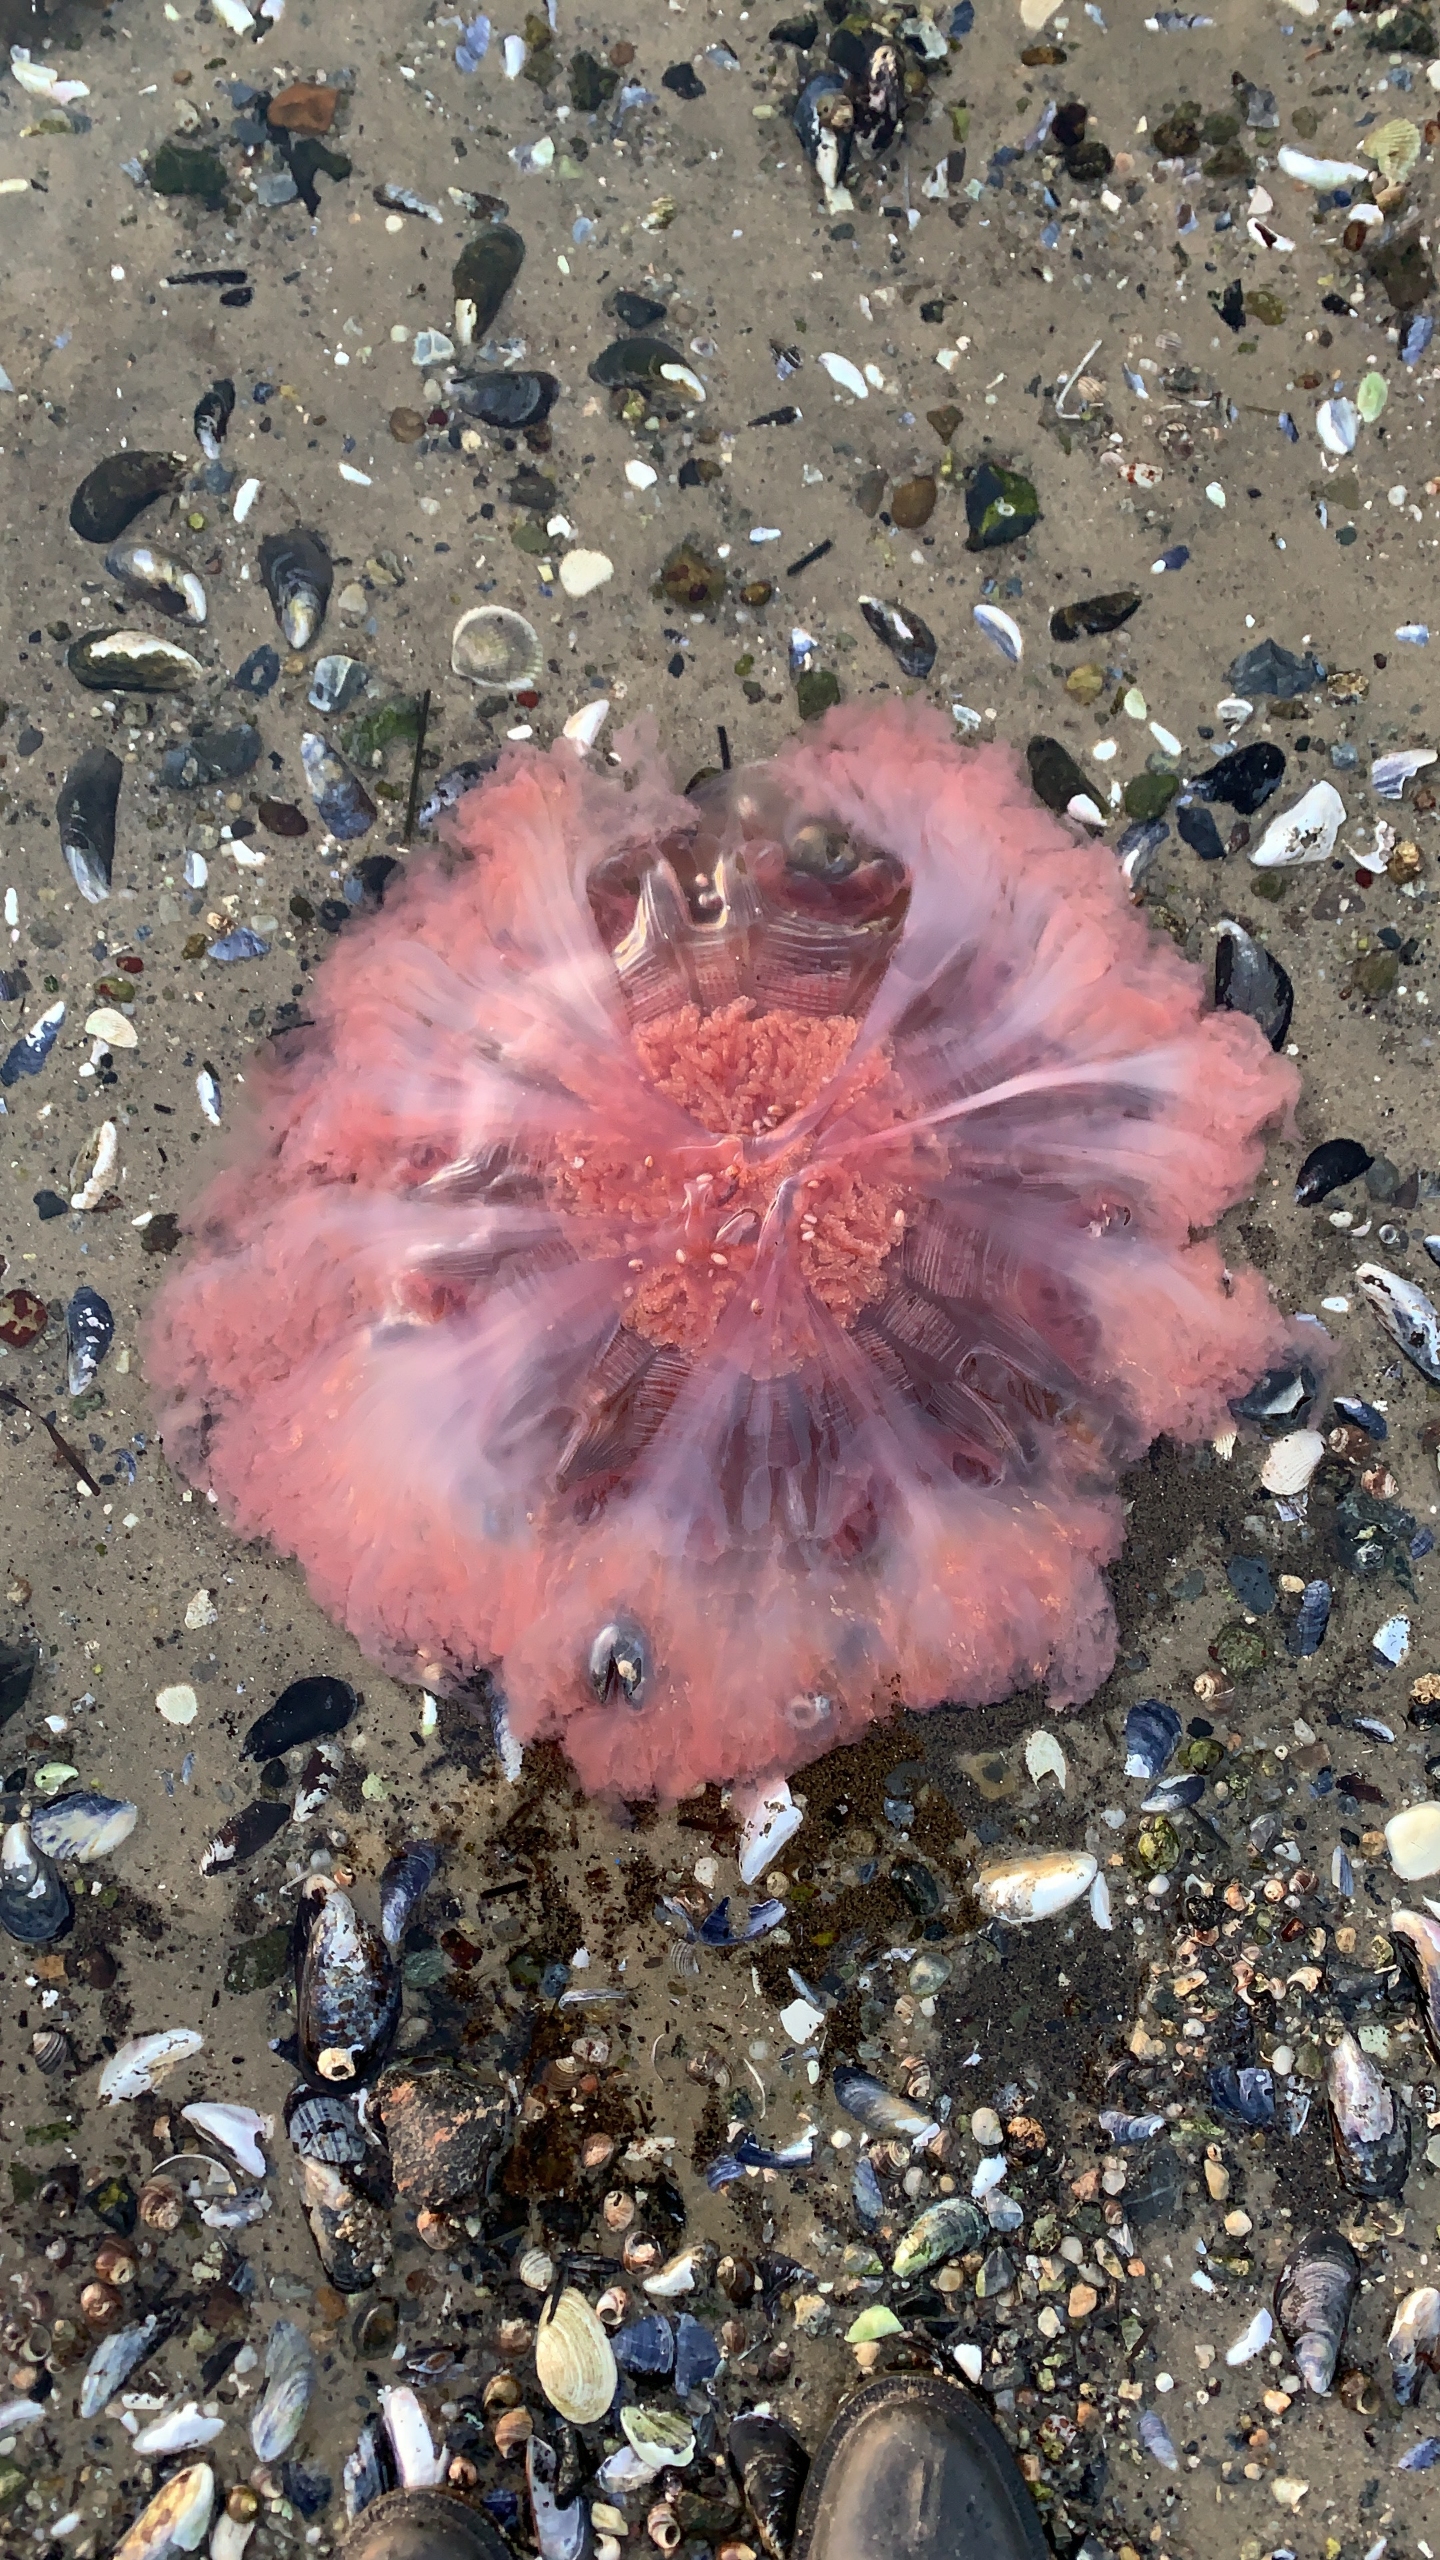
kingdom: Animalia
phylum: Cnidaria
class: Scyphozoa
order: Semaeostomeae
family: Cyaneidae
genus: Cyanea
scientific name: Cyanea capillata
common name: Rød brandmand
